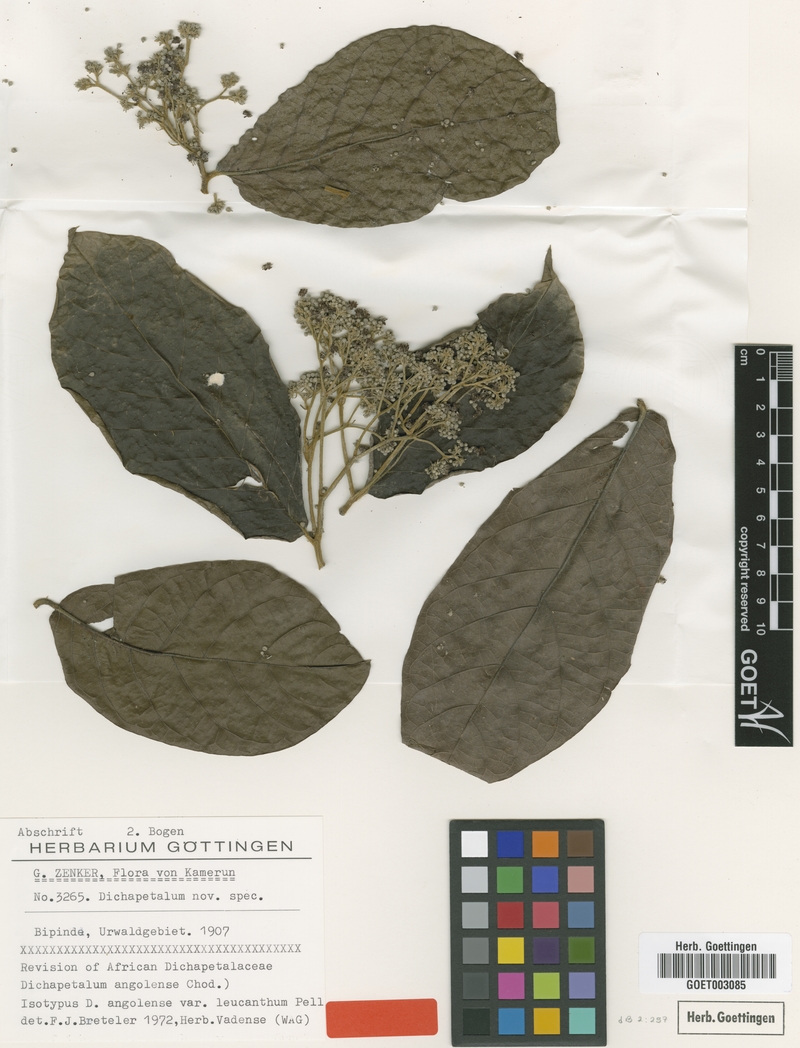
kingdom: Plantae
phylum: Tracheophyta
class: Magnoliopsida
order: Malpighiales
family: Dichapetalaceae
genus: Dichapetalum
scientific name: Dichapetalum angolense
